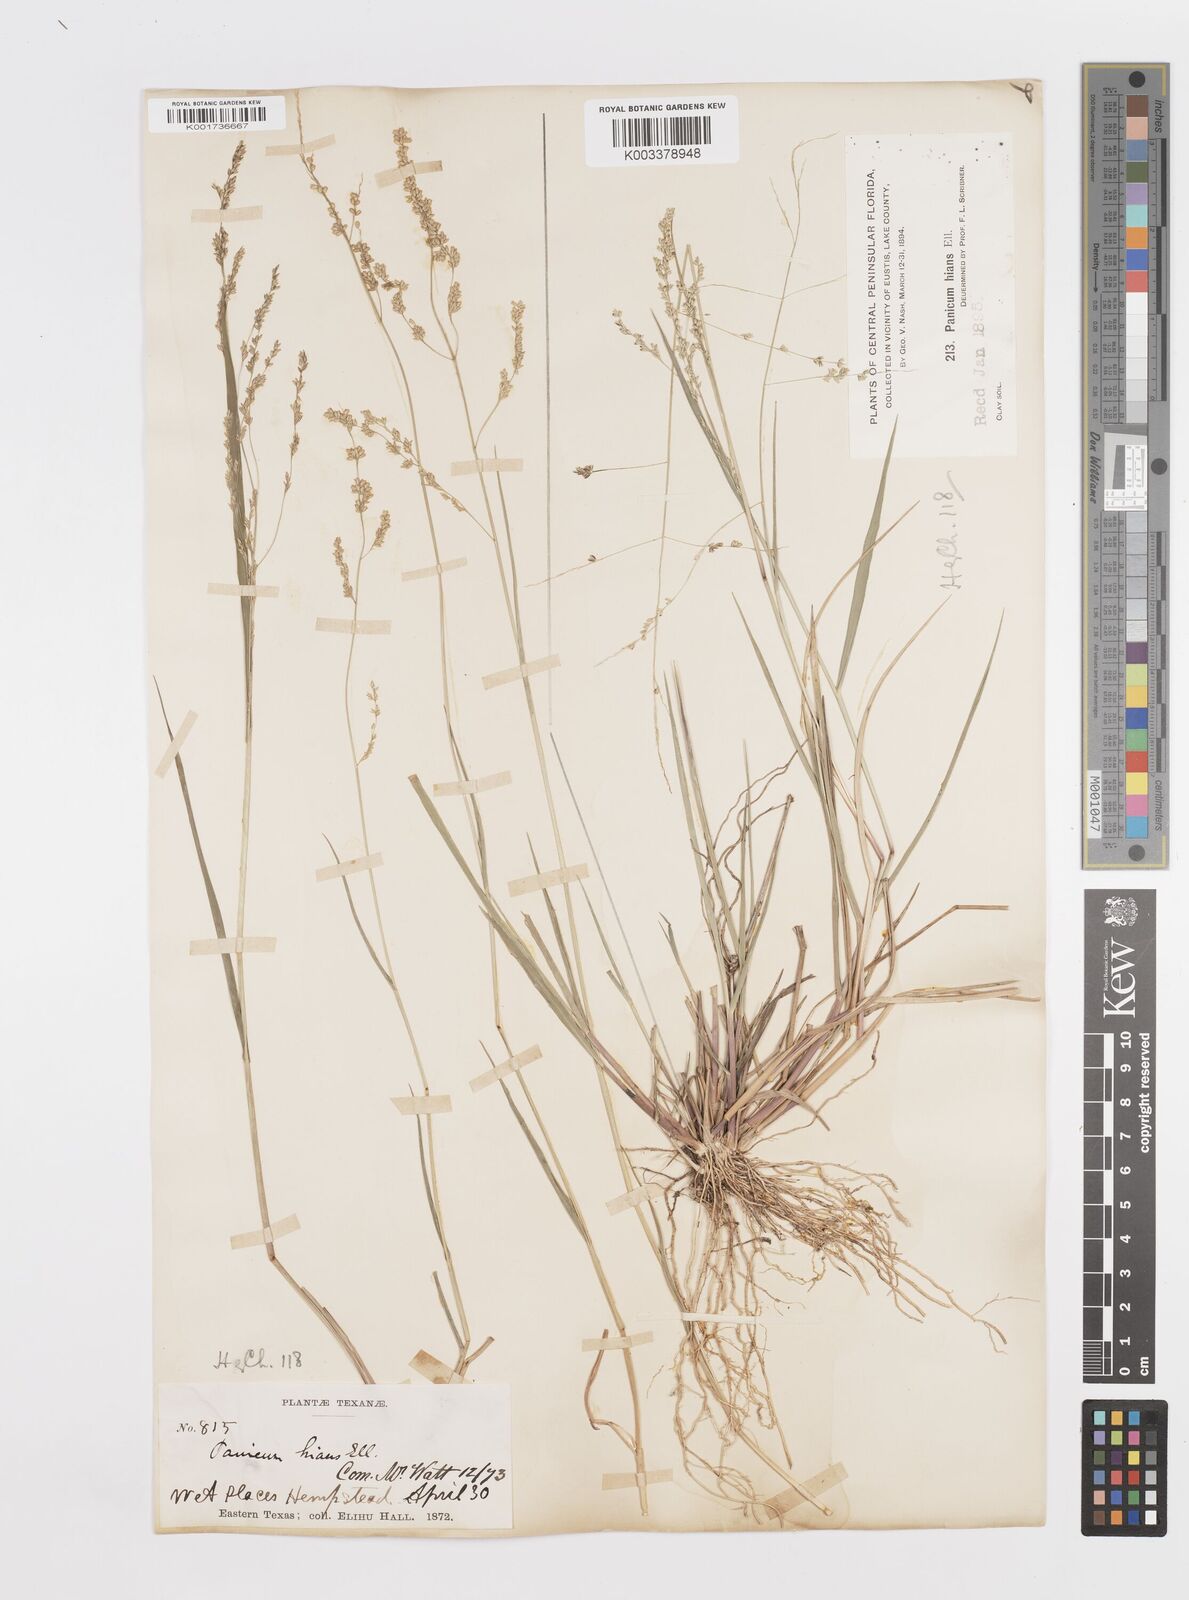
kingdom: Plantae
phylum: Tracheophyta
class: Liliopsida
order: Poales
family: Poaceae
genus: Steinchisma
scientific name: Steinchisma hians
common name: Gaping panic grass
